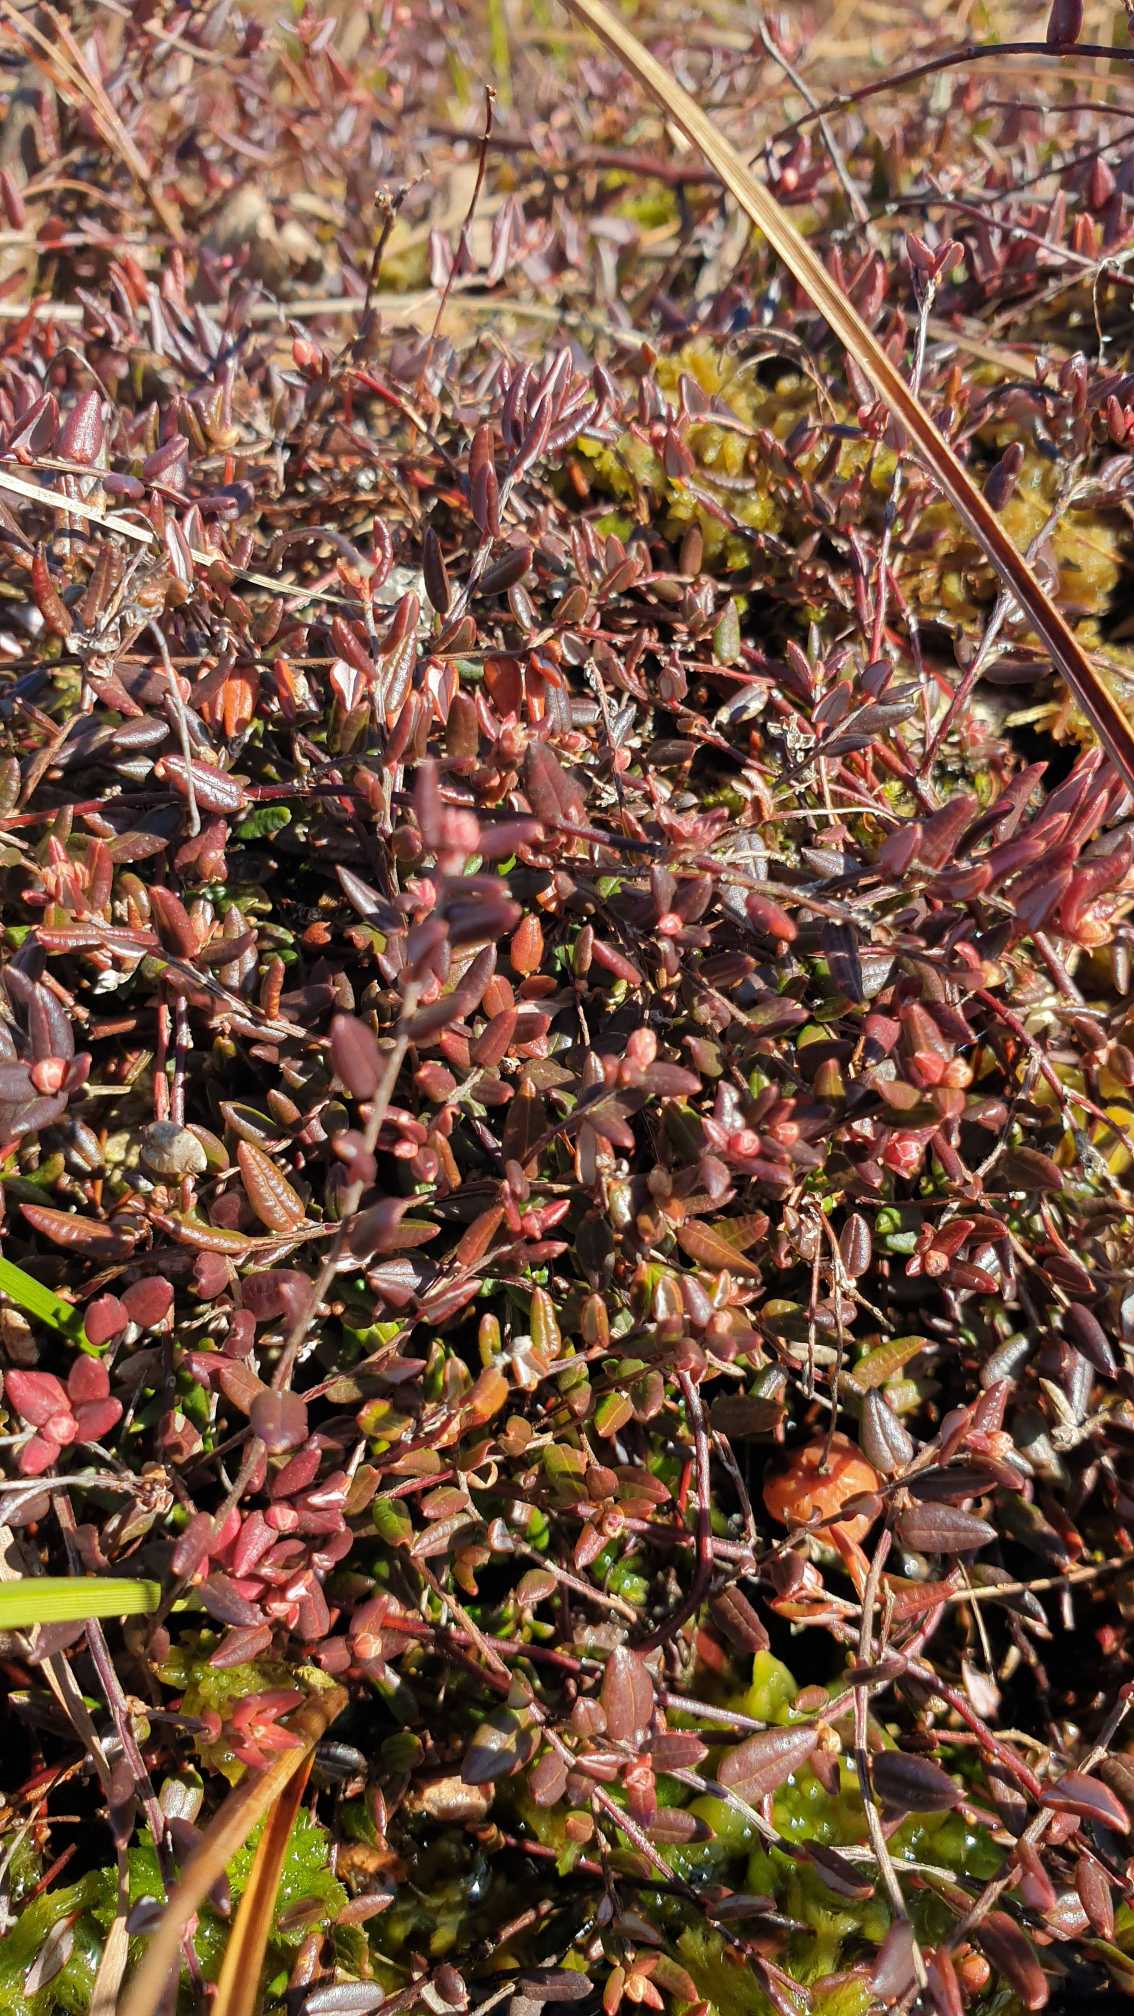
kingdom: Plantae
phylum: Tracheophyta
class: Magnoliopsida
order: Ericales
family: Ericaceae
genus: Vaccinium
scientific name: Vaccinium oxycoccos
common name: Tranebær
